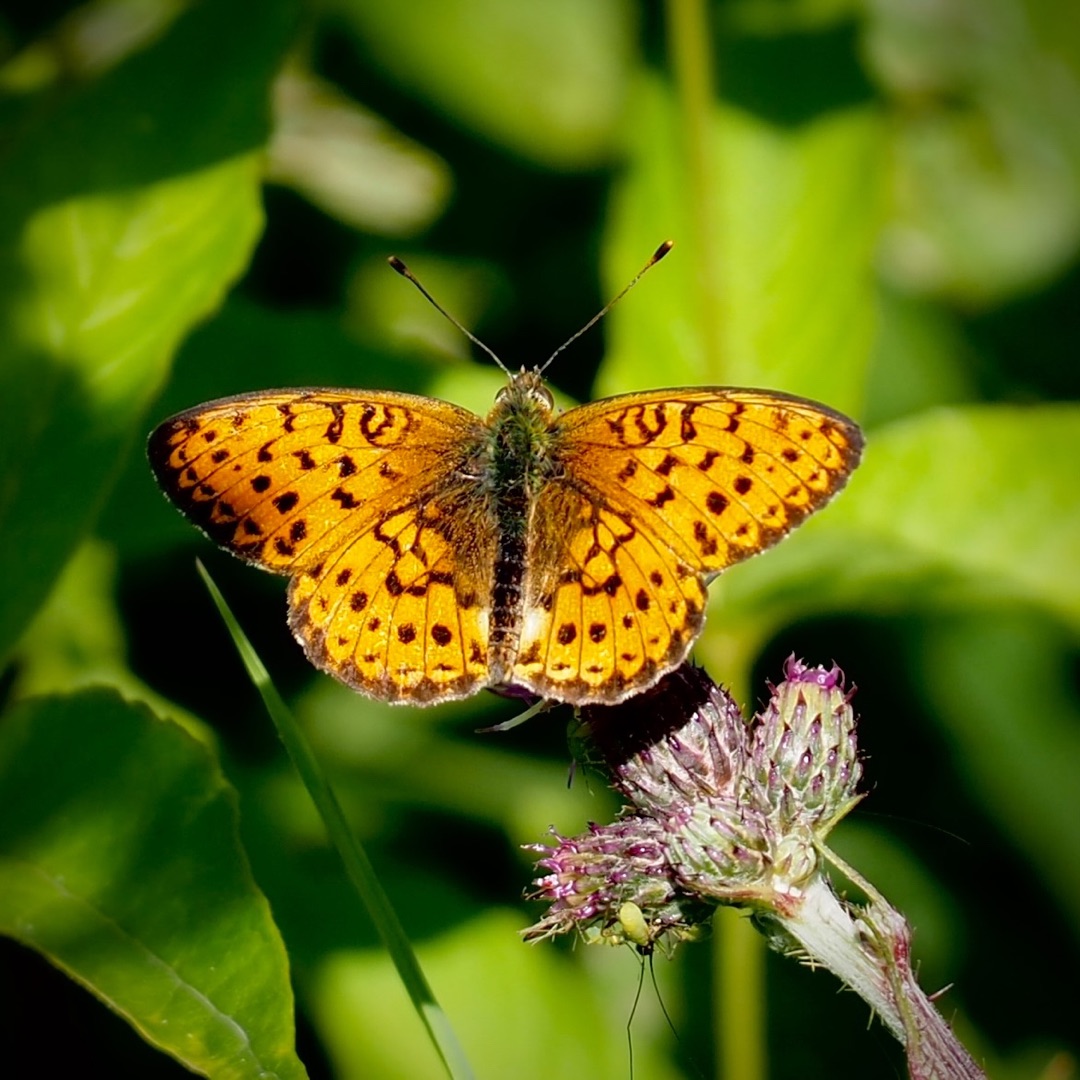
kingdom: Animalia
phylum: Arthropoda
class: Insecta
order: Lepidoptera
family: Nymphalidae
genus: Brenthis
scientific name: Brenthis ino
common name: Engperlemorsommerfugl
